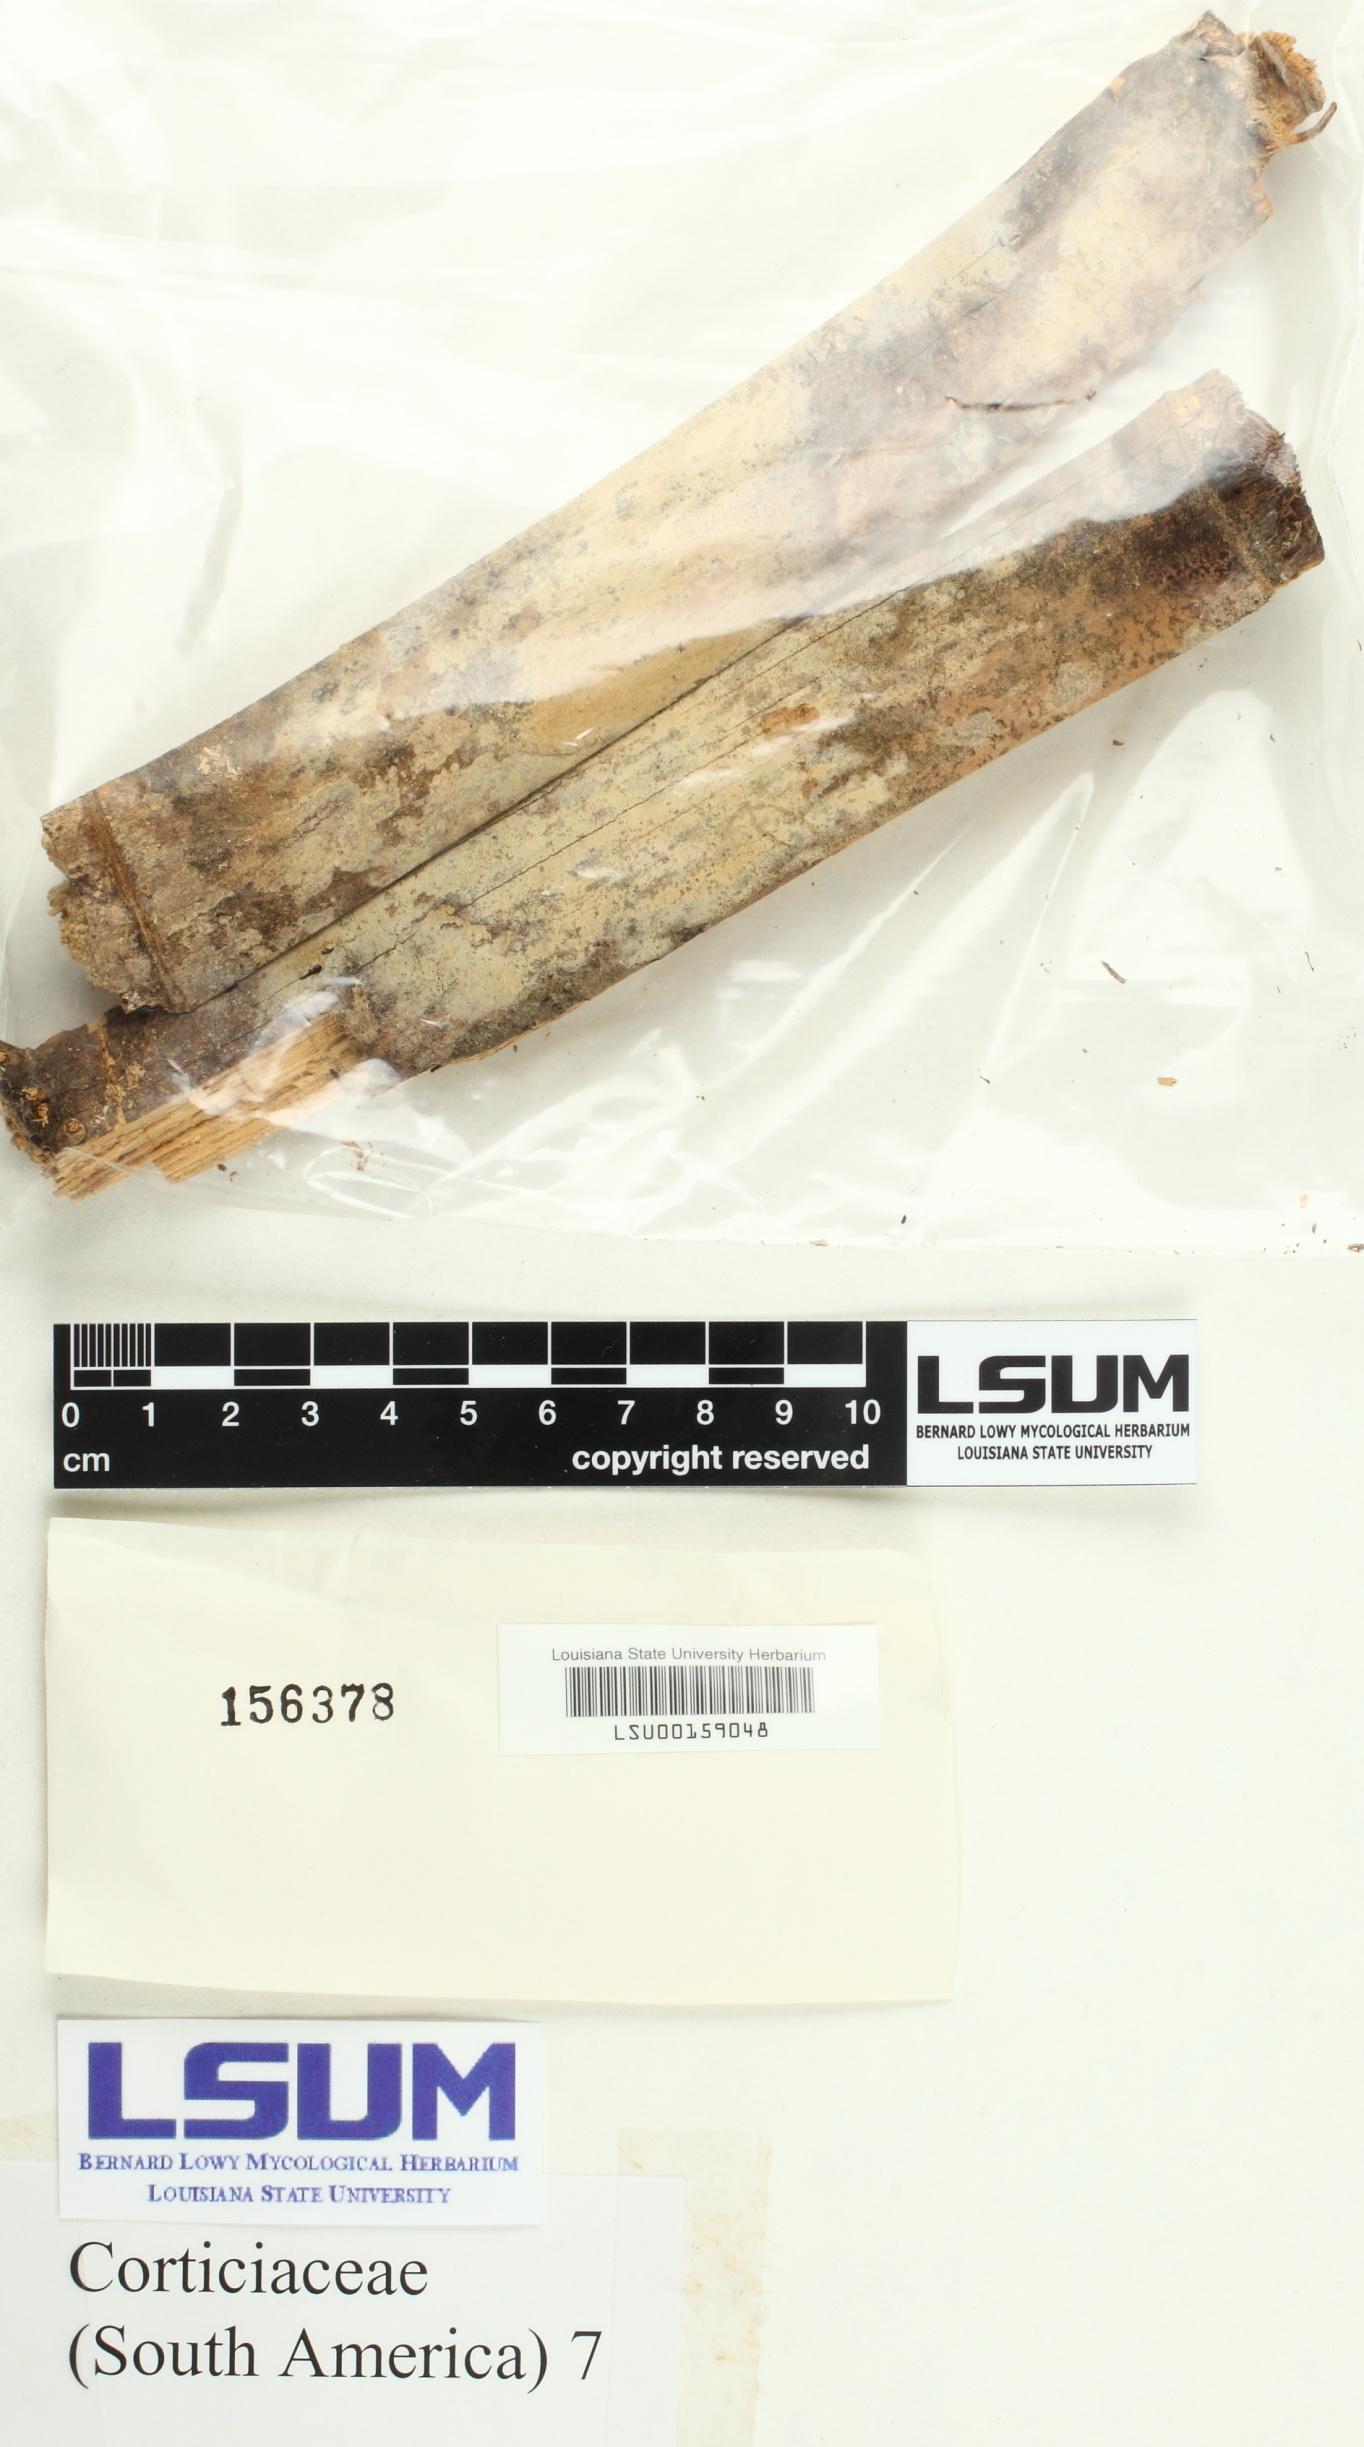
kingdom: Fungi
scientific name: Fungi
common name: Fungi
